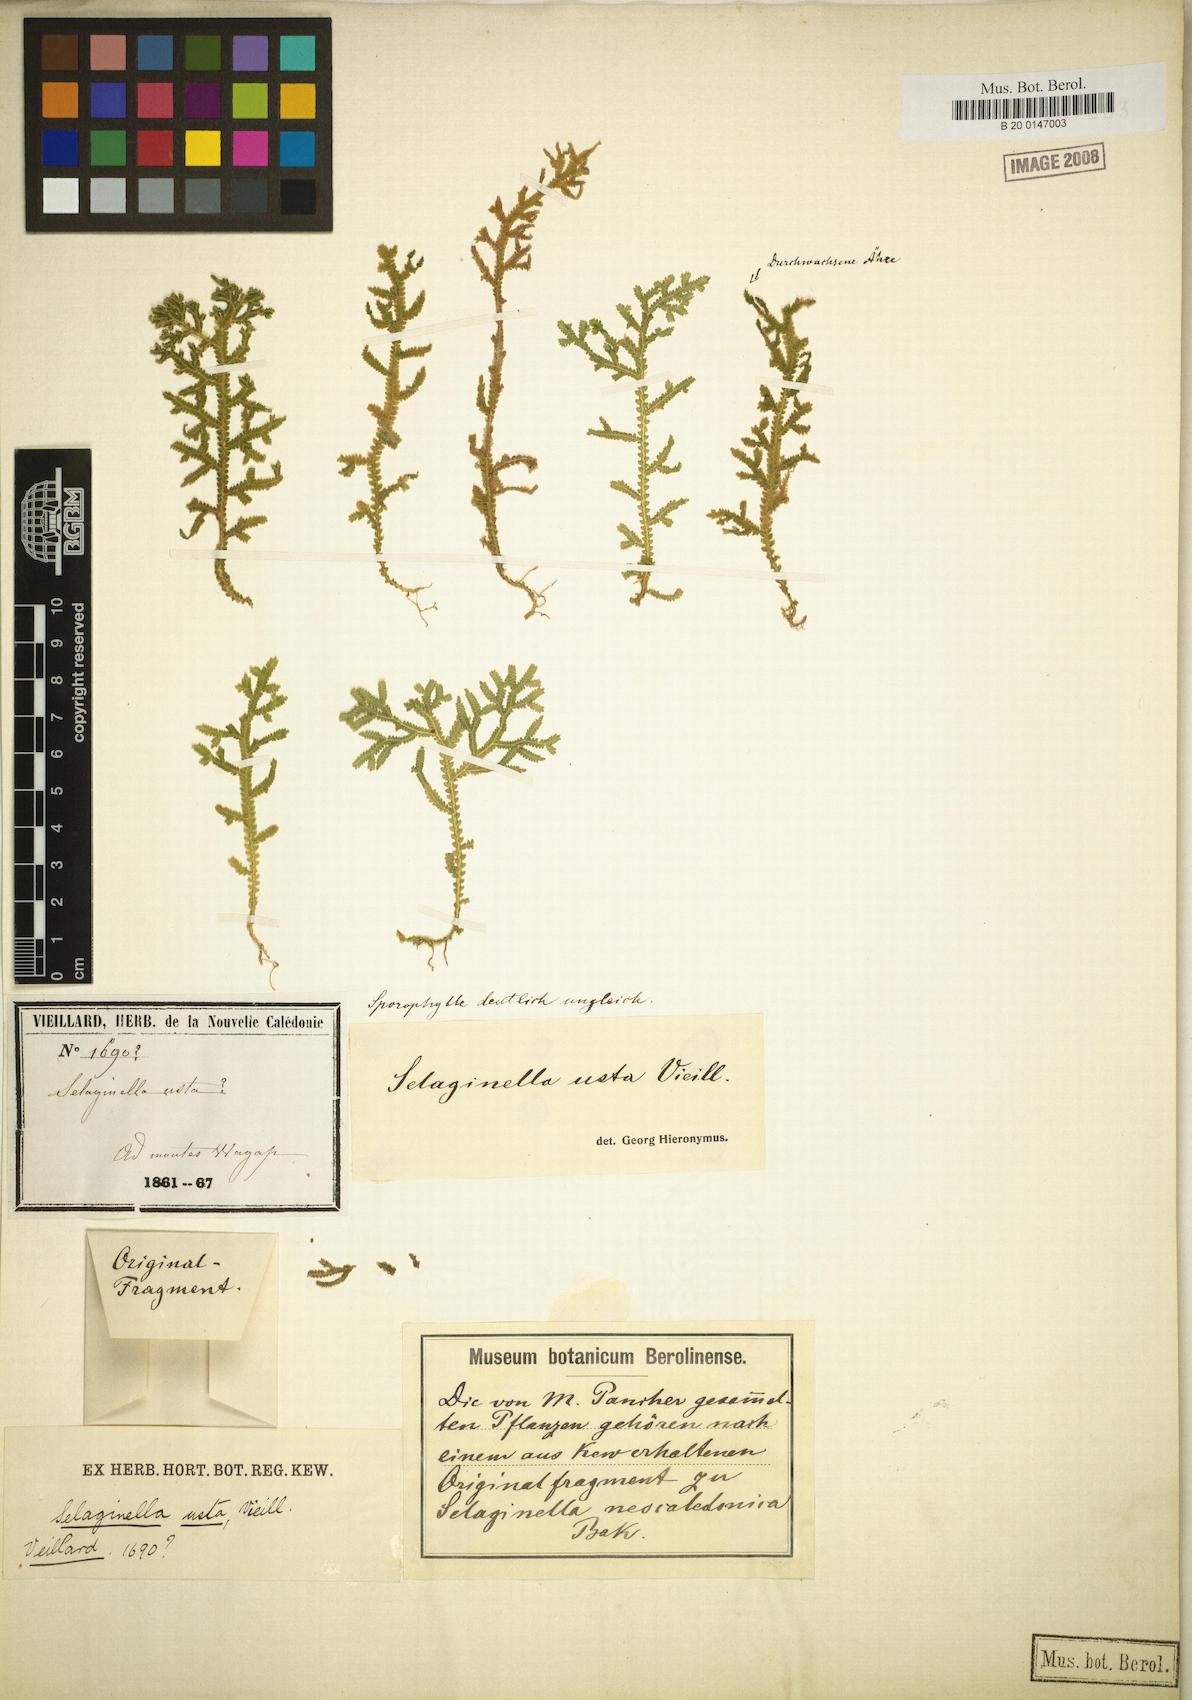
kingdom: Plantae
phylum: Tracheophyta
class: Lycopodiopsida
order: Selaginellales
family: Selaginellaceae
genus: Selaginella
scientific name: Selaginella neocaledonica
